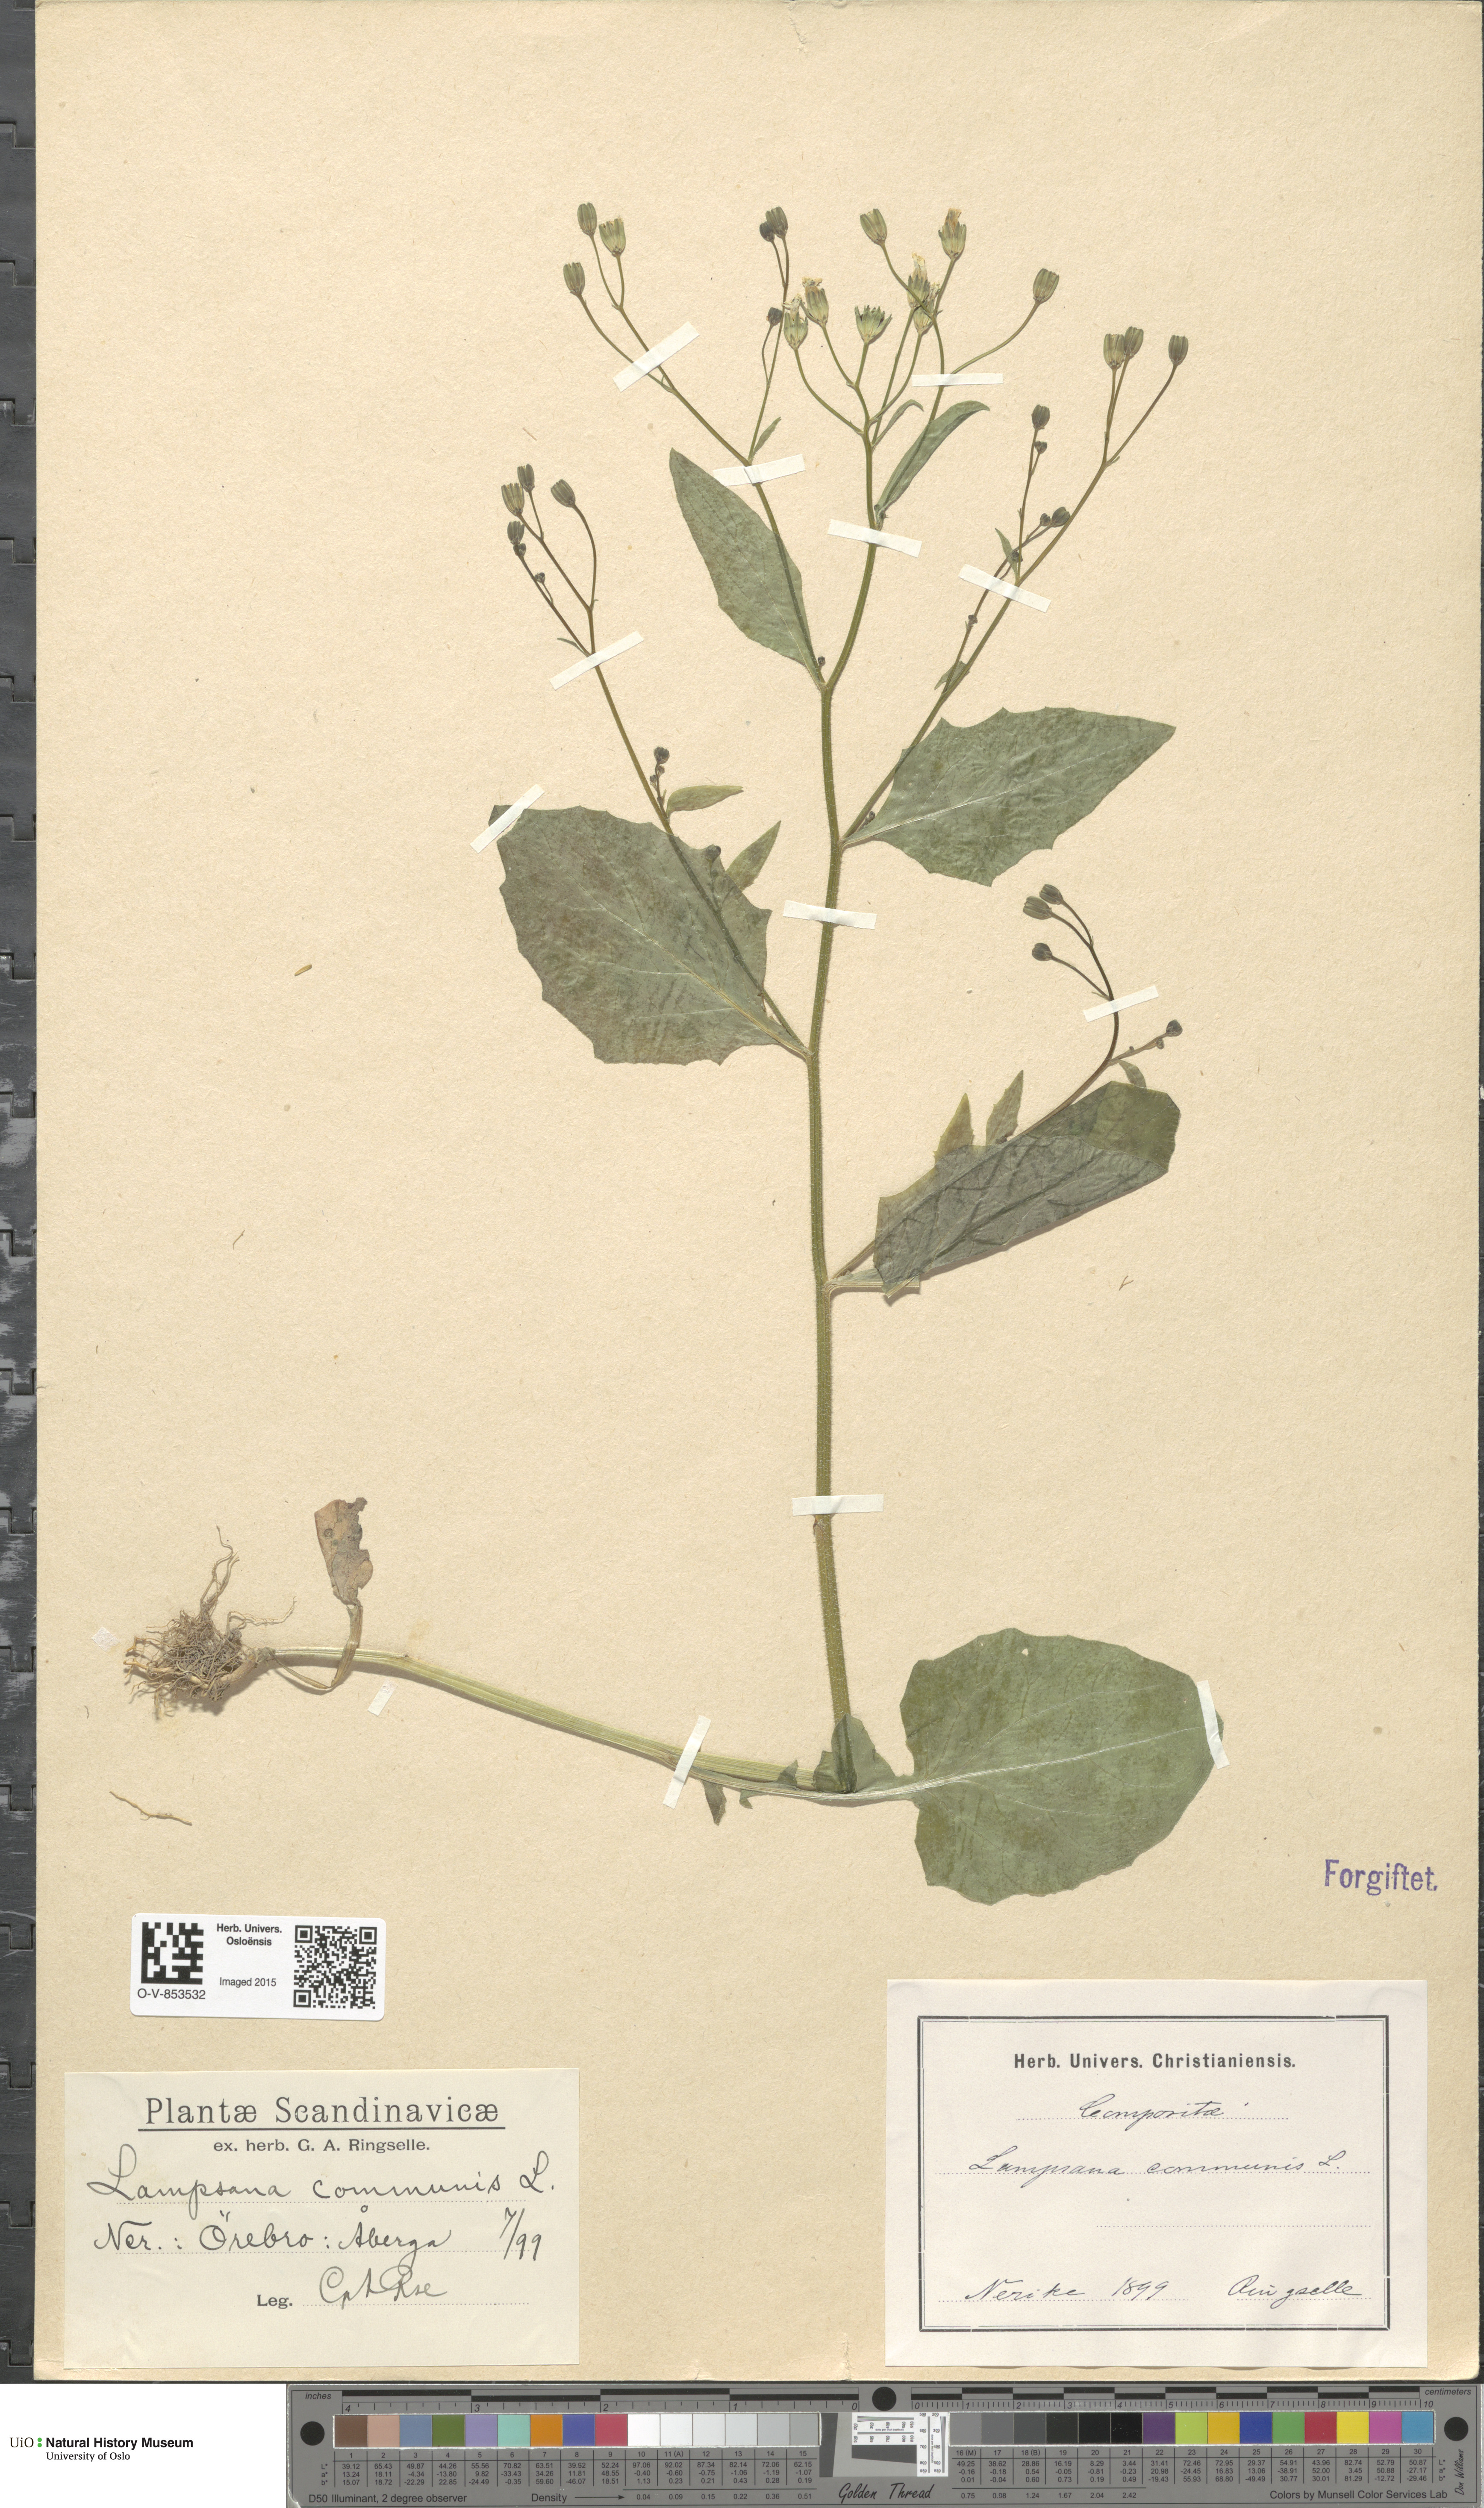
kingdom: Plantae
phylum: Tracheophyta
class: Magnoliopsida
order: Asterales
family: Asteraceae
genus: Lapsana
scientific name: Lapsana communis
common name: Nipplewort
